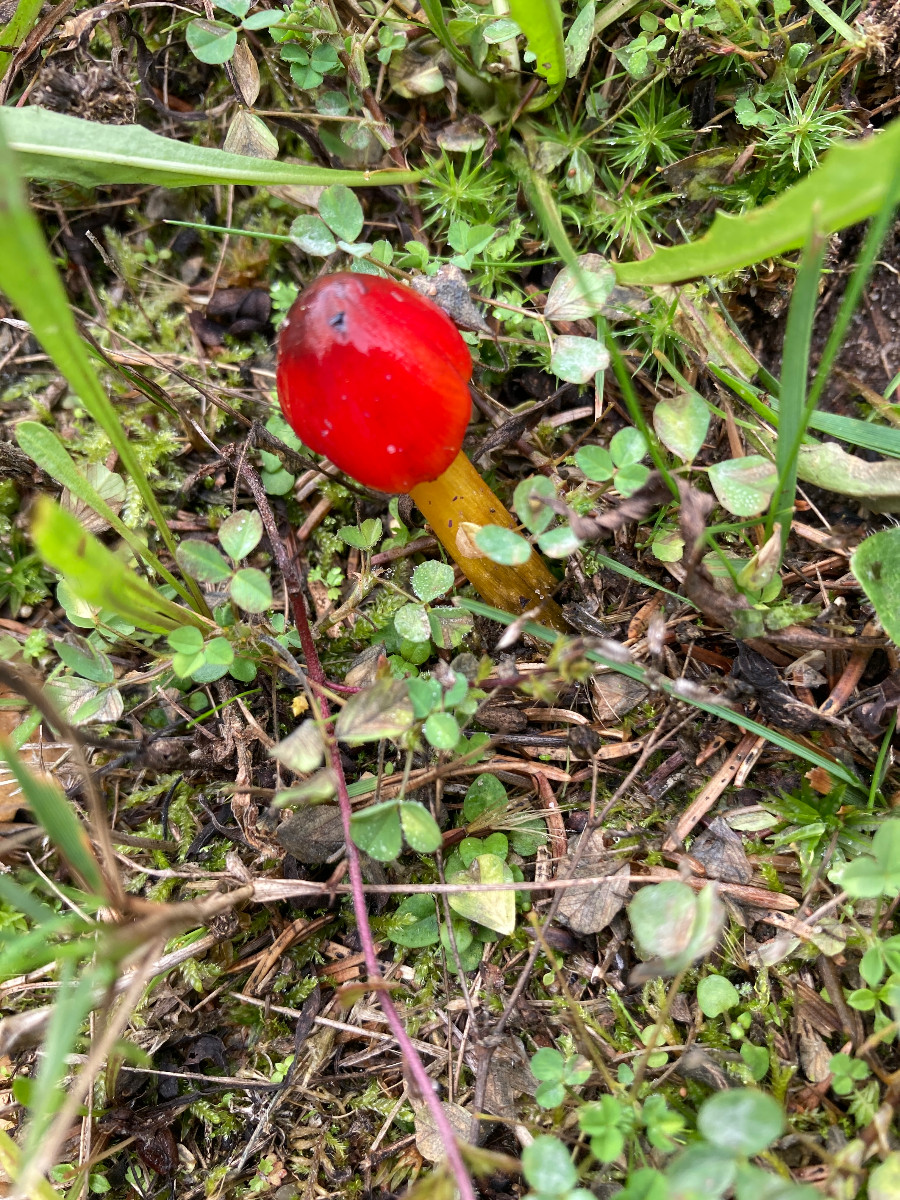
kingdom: Fungi
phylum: Basidiomycota
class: Agaricomycetes
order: Agaricales
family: Hygrophoraceae
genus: Hygrocybe
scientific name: Hygrocybe conica
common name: kegle-vokshat
